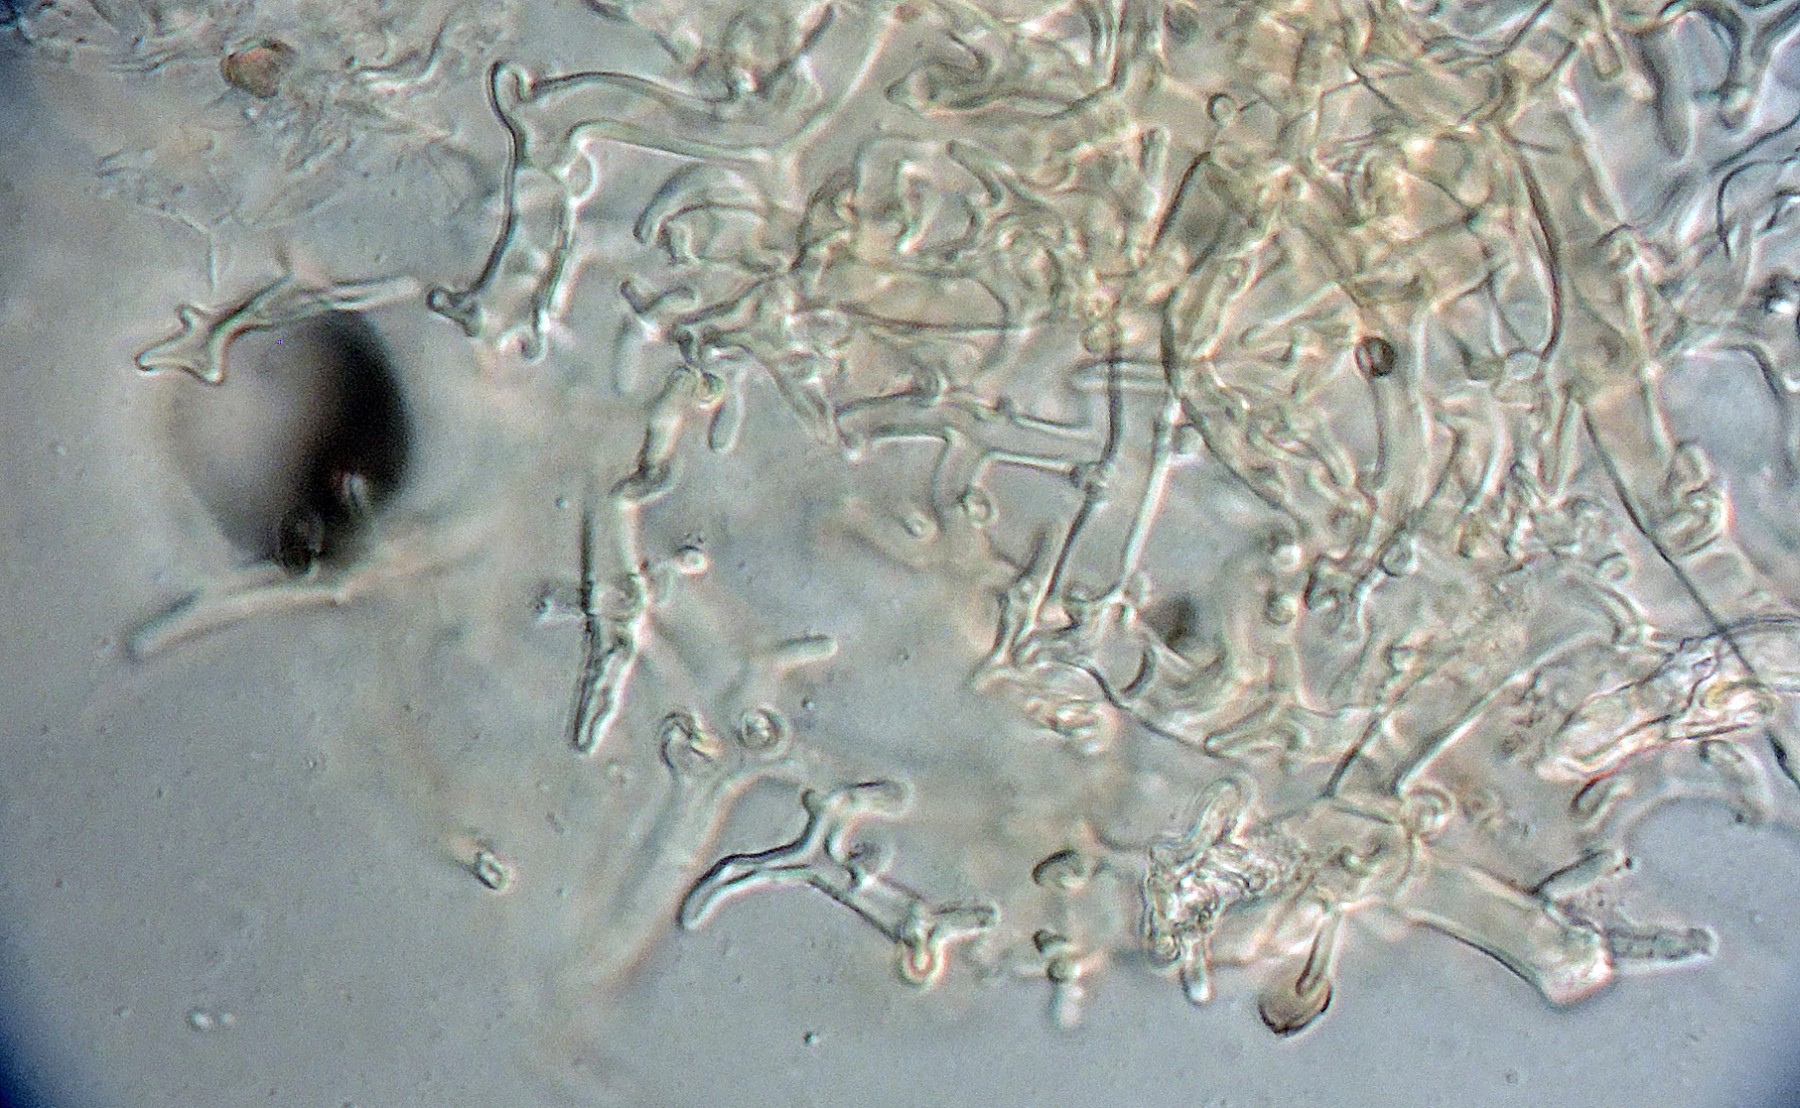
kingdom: Fungi
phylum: Basidiomycota
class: Agaricomycetes
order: Agaricales
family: Psathyrellaceae
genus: Coprinopsis
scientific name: Coprinopsis pseudofriesii
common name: gulfnugget blækhat
